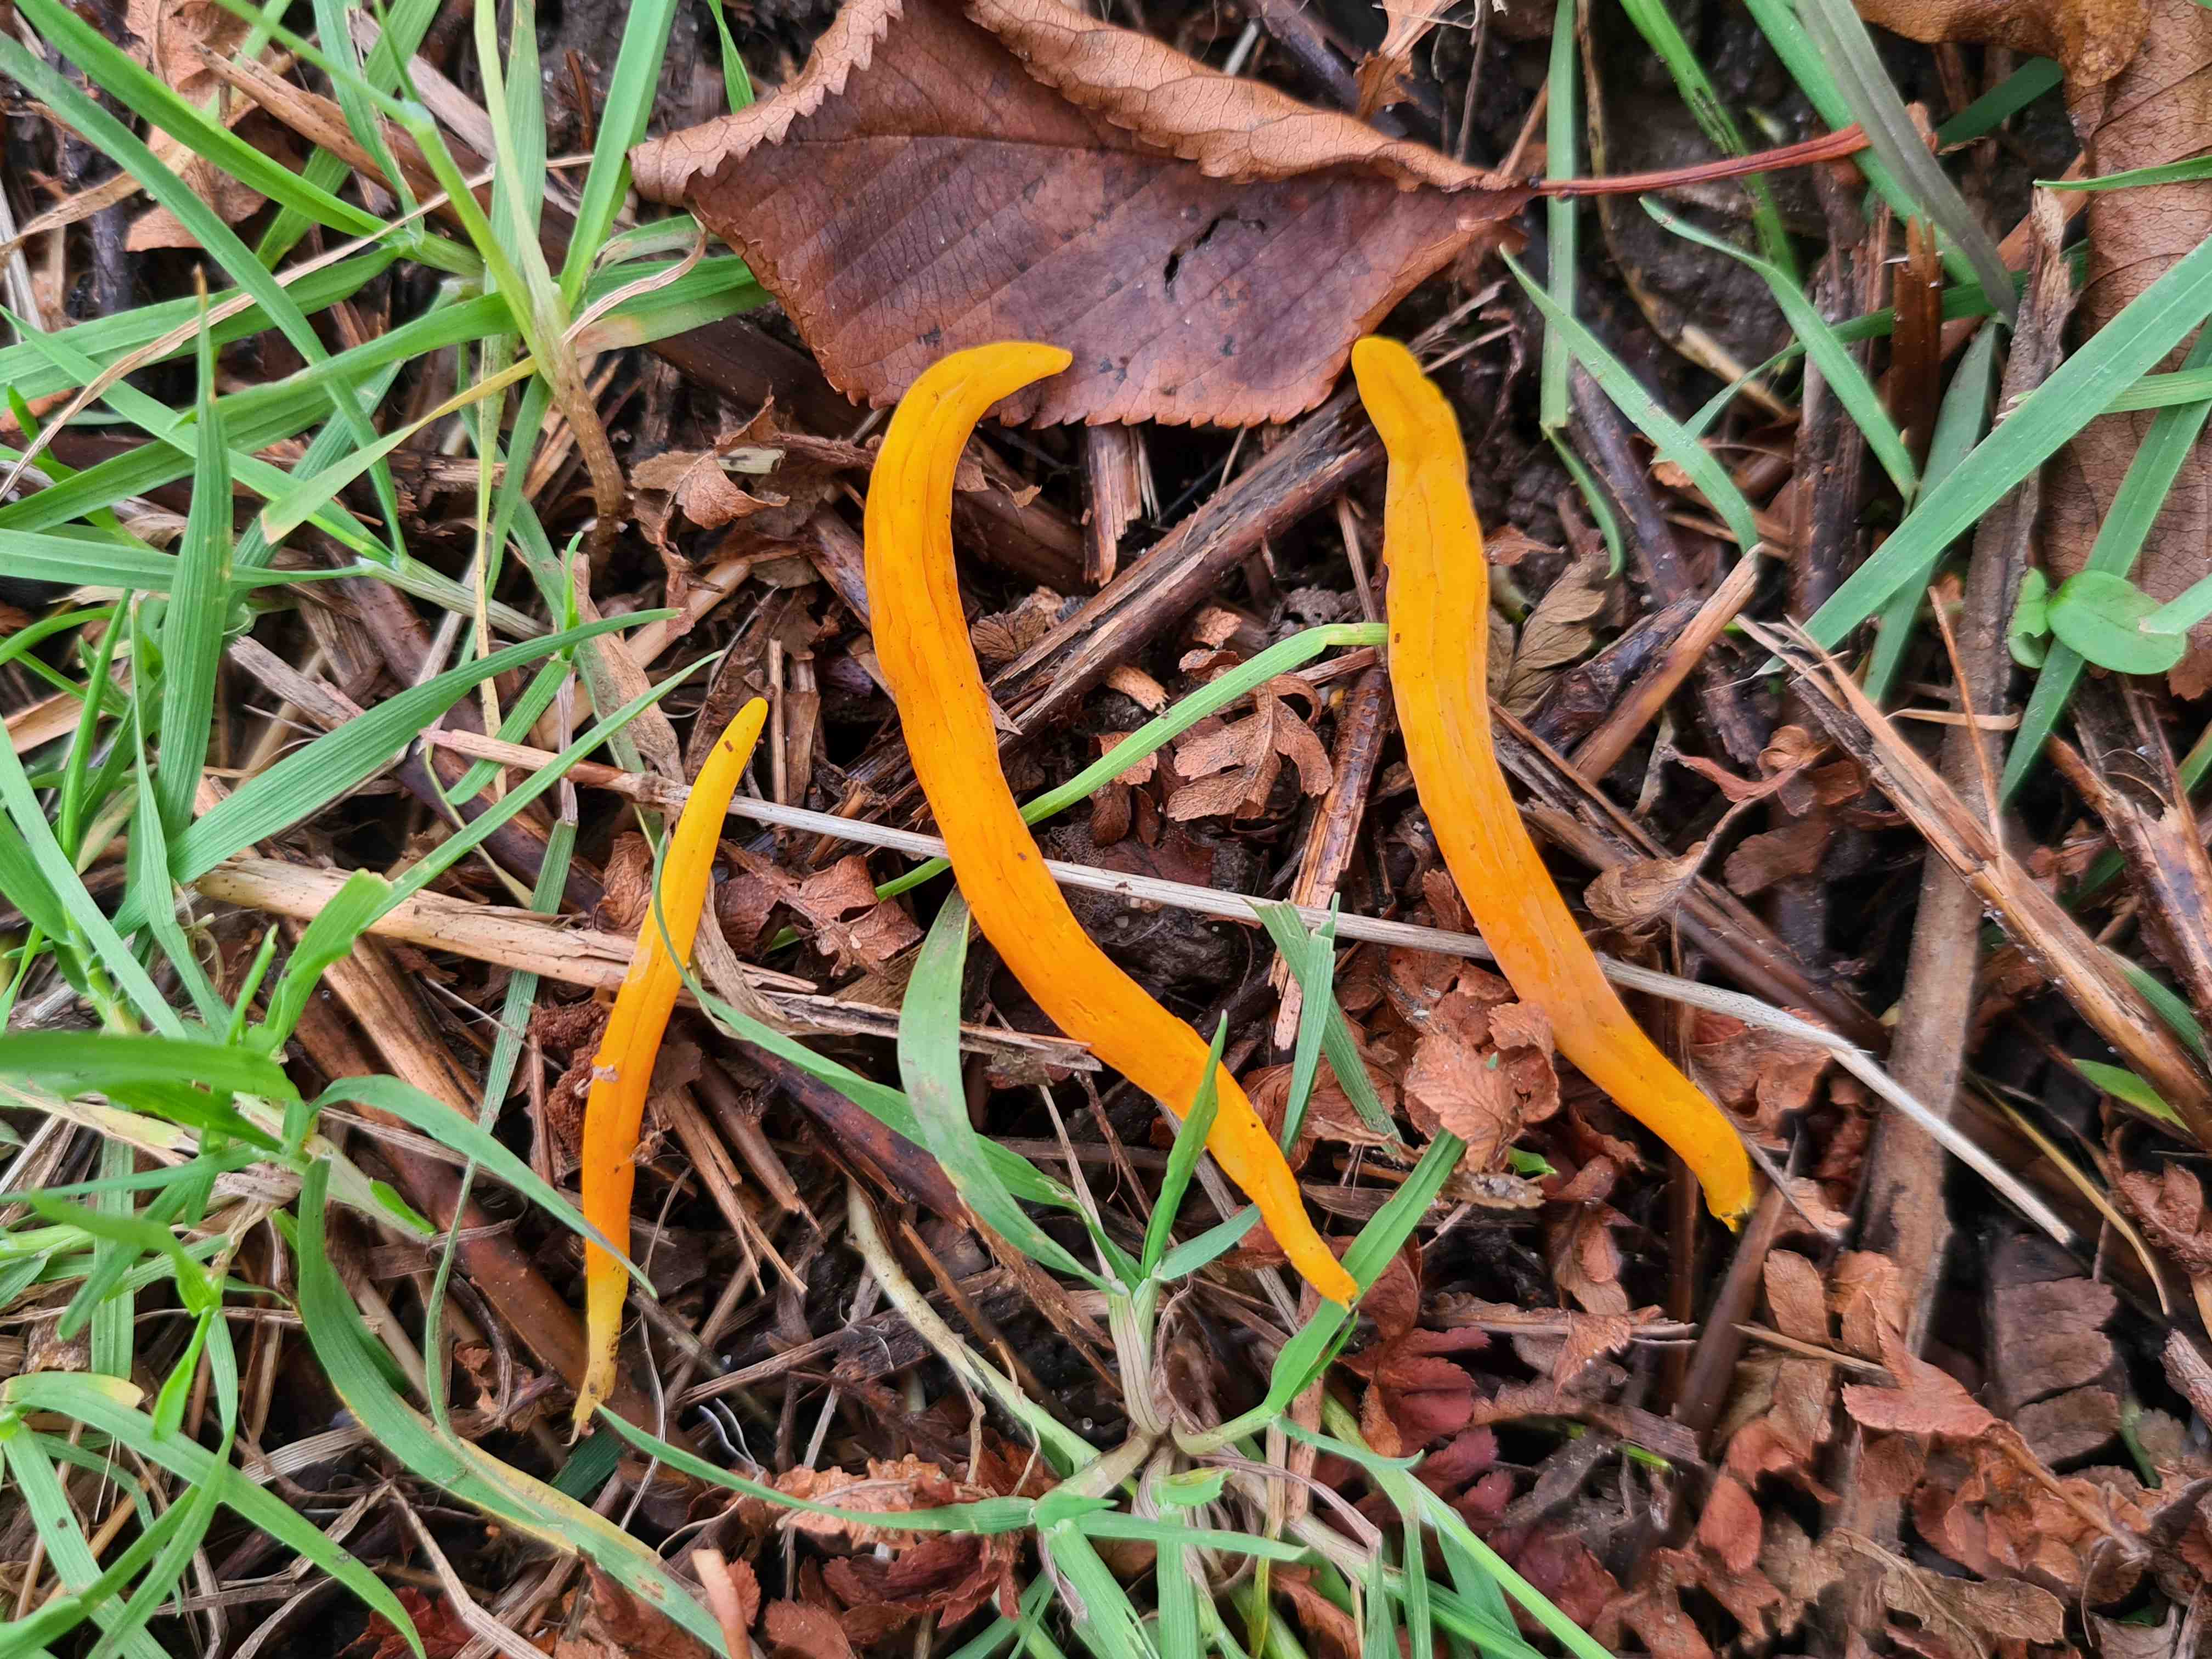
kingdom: Fungi
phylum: Basidiomycota
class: Agaricomycetes
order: Agaricales
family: Clavariaceae
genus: Clavulinopsis
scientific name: Clavulinopsis
